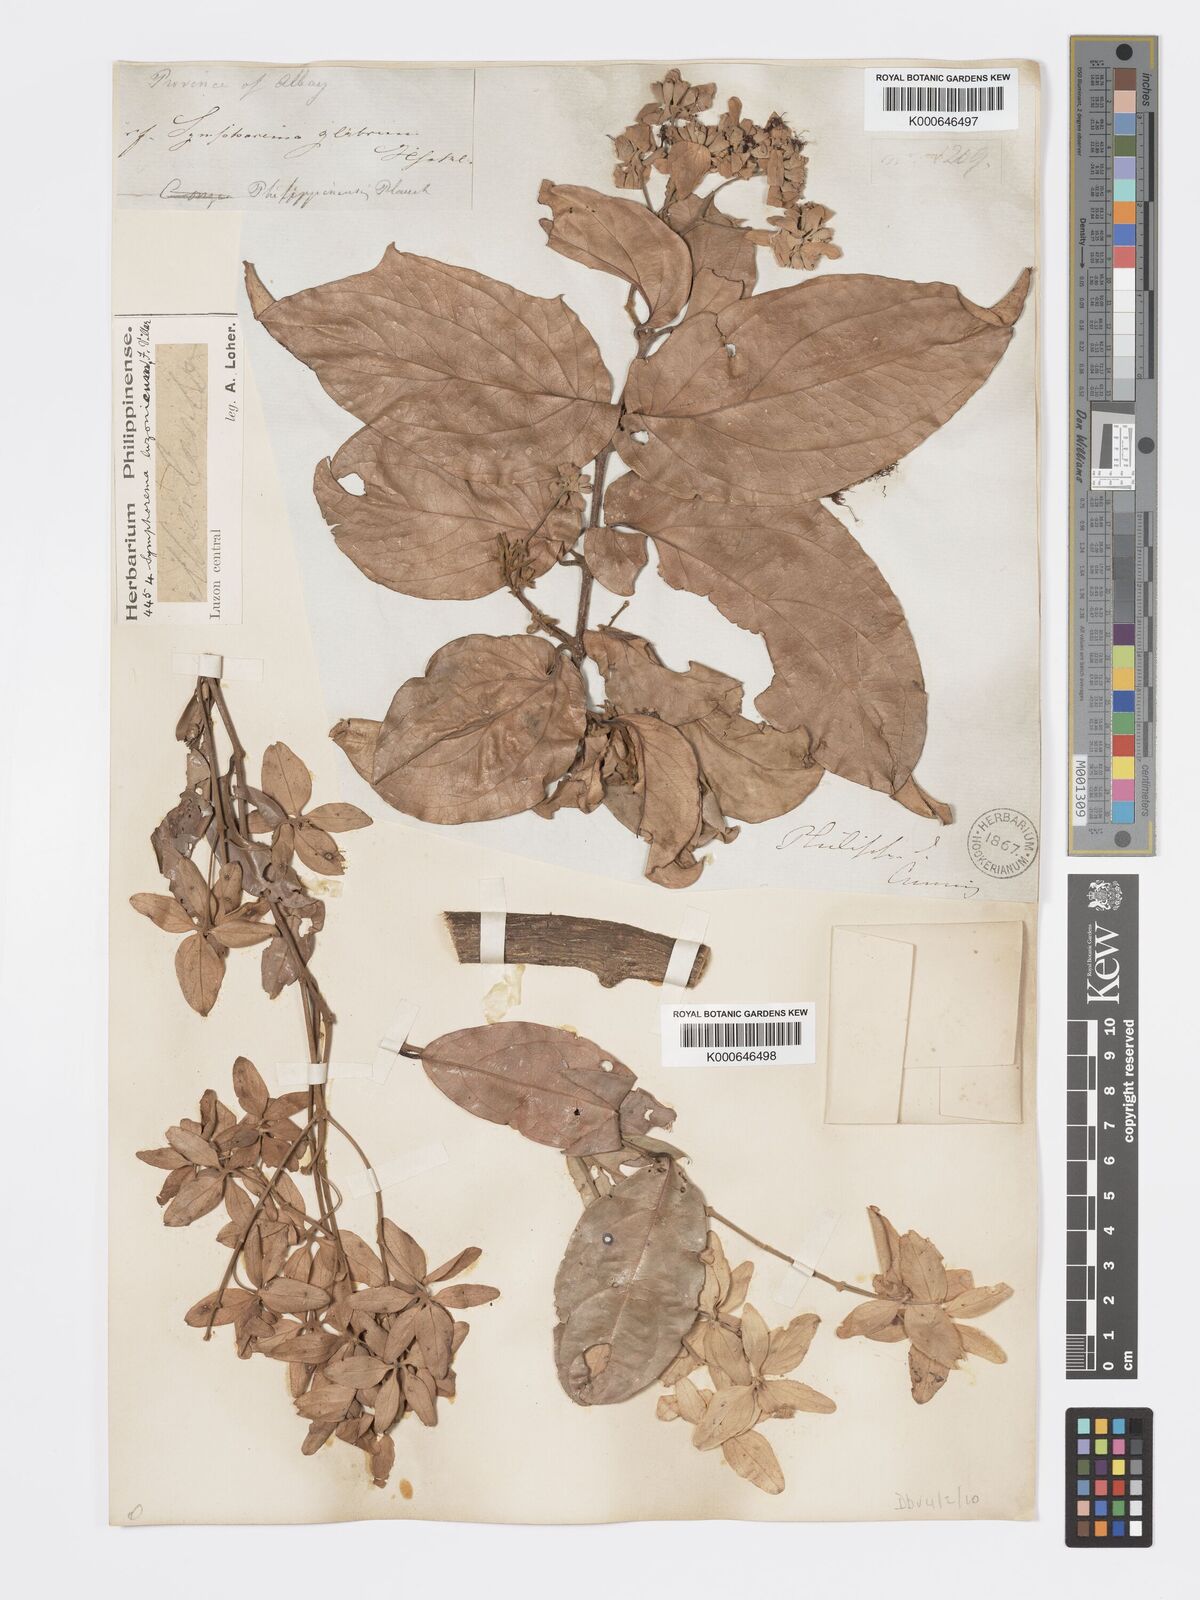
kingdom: Plantae
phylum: Tracheophyta
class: Magnoliopsida
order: Lamiales
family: Lamiaceae
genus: Symphorema
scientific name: Symphorema luzonicum
